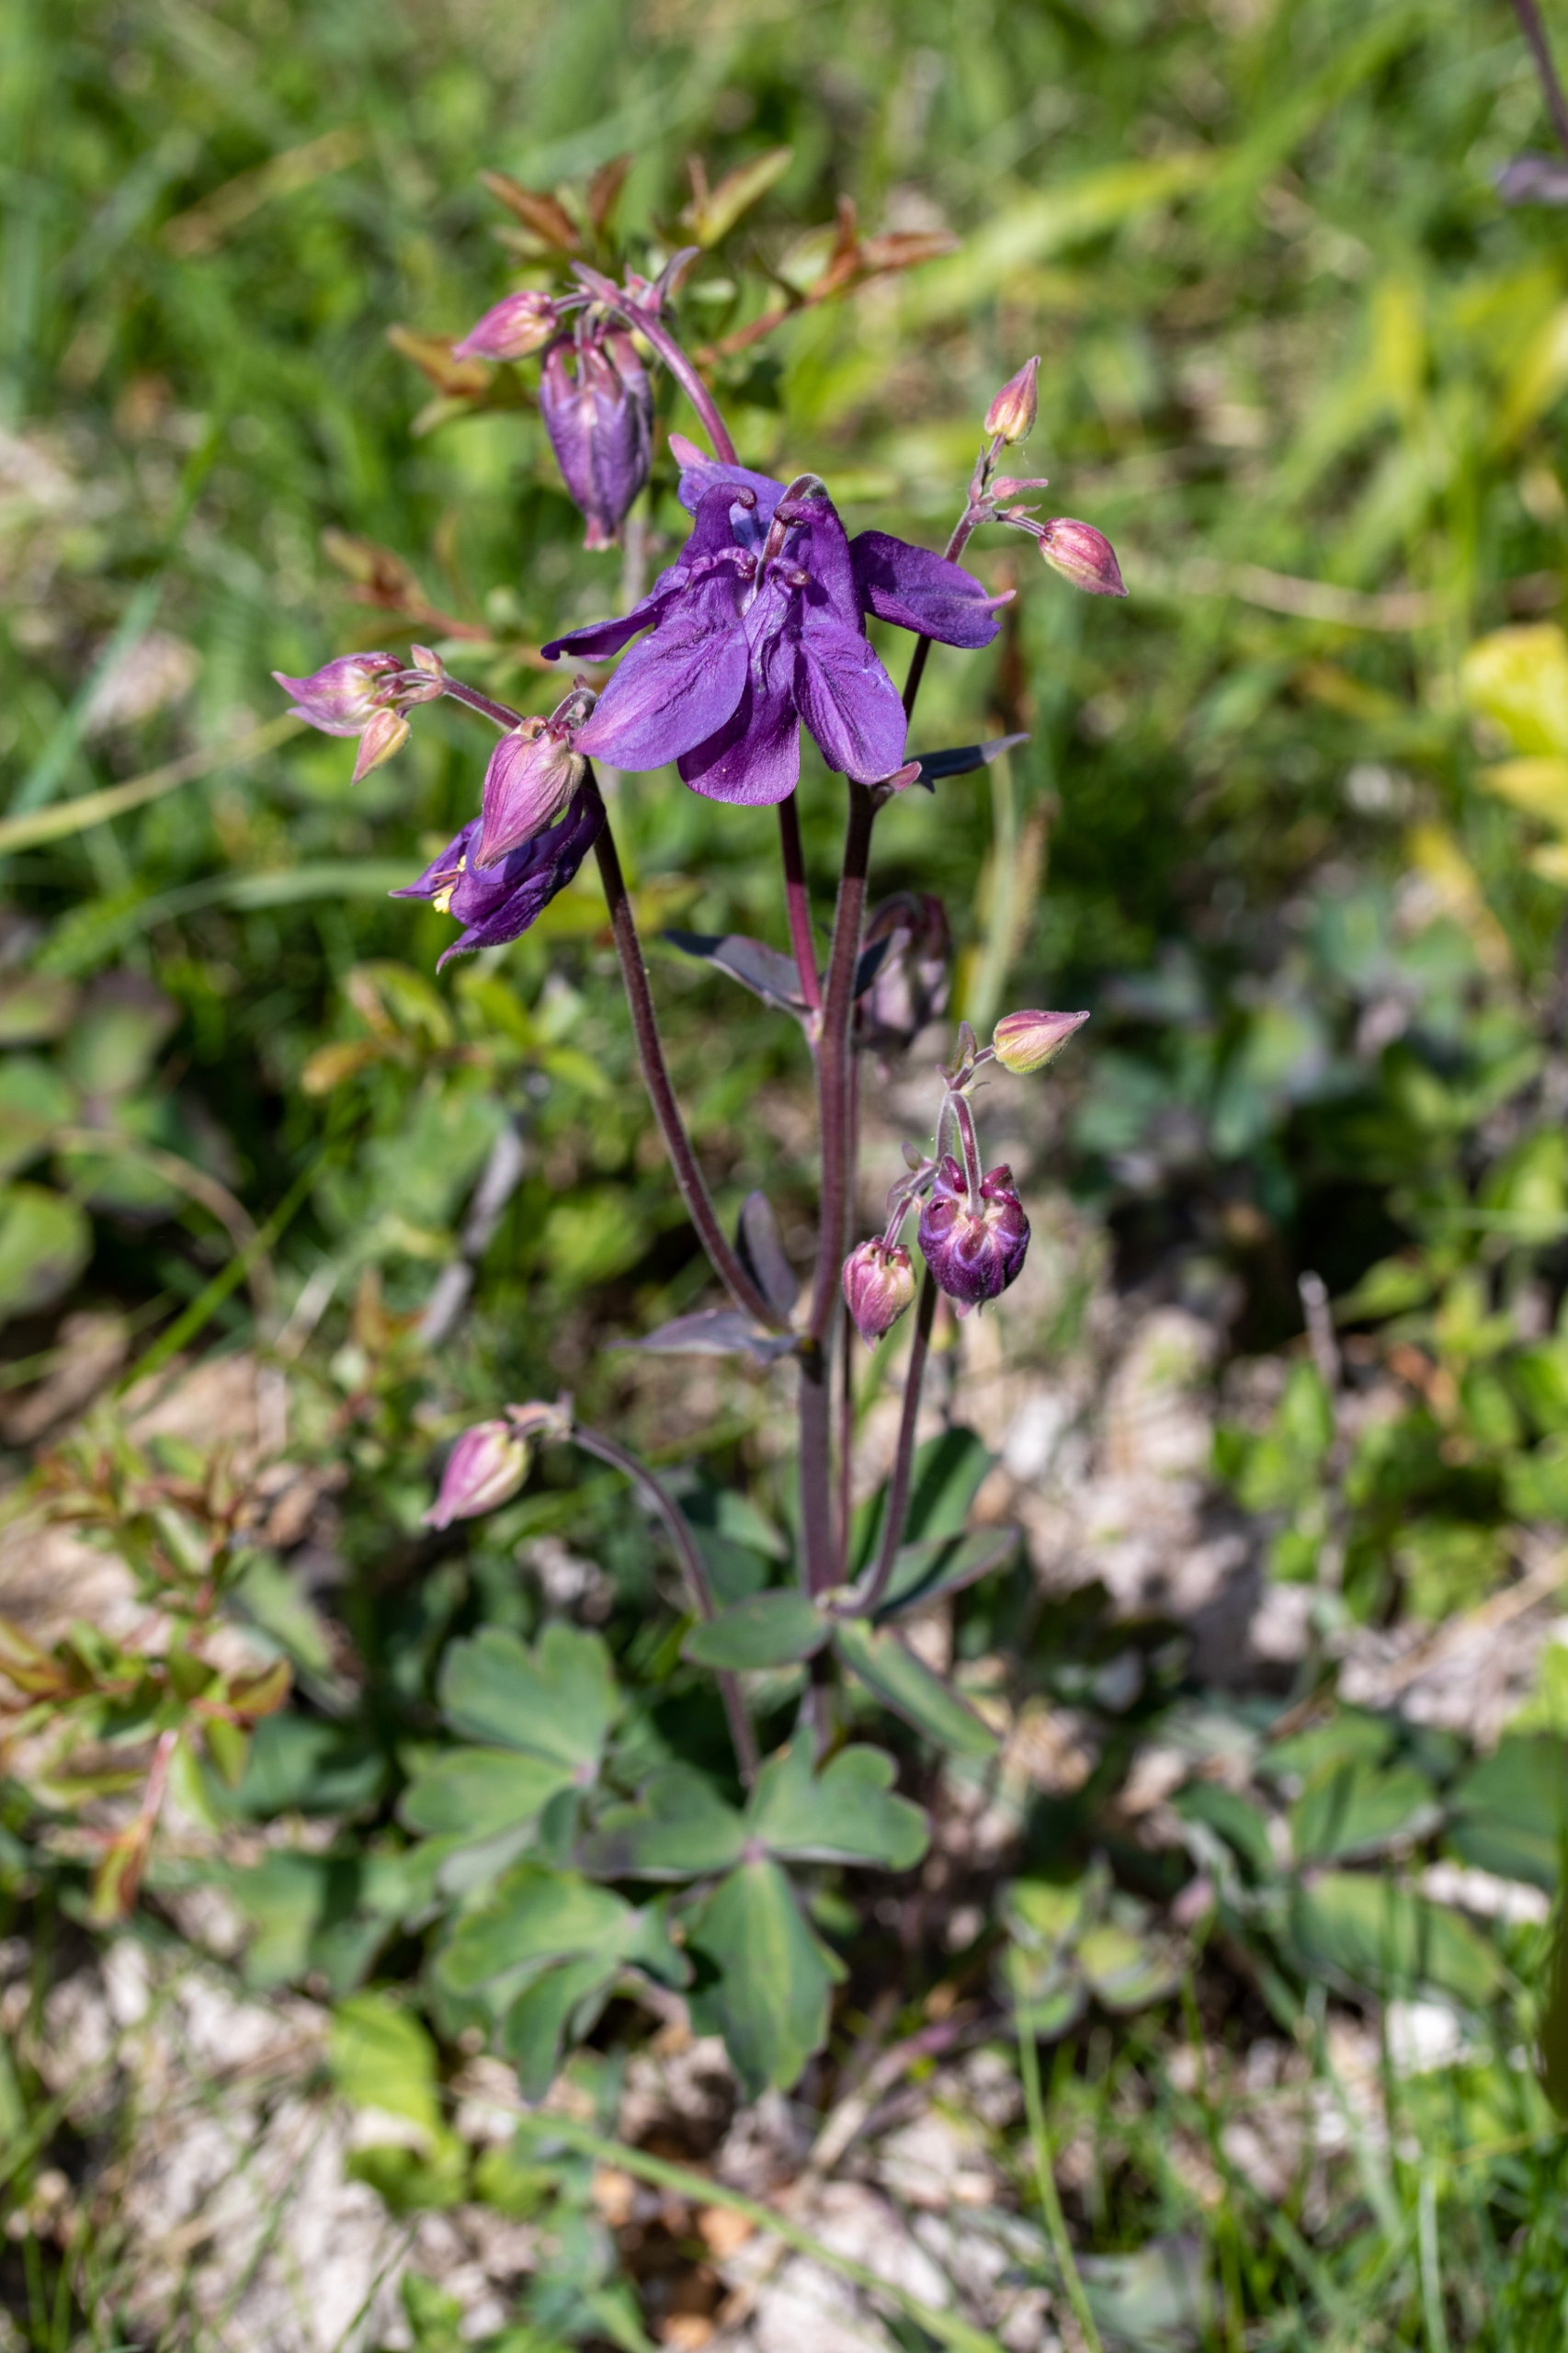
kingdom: Plantae
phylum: Tracheophyta
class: Magnoliopsida
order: Ranunculales
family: Ranunculaceae
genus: Aquilegia
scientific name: Aquilegia vulgaris
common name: Akeleje
